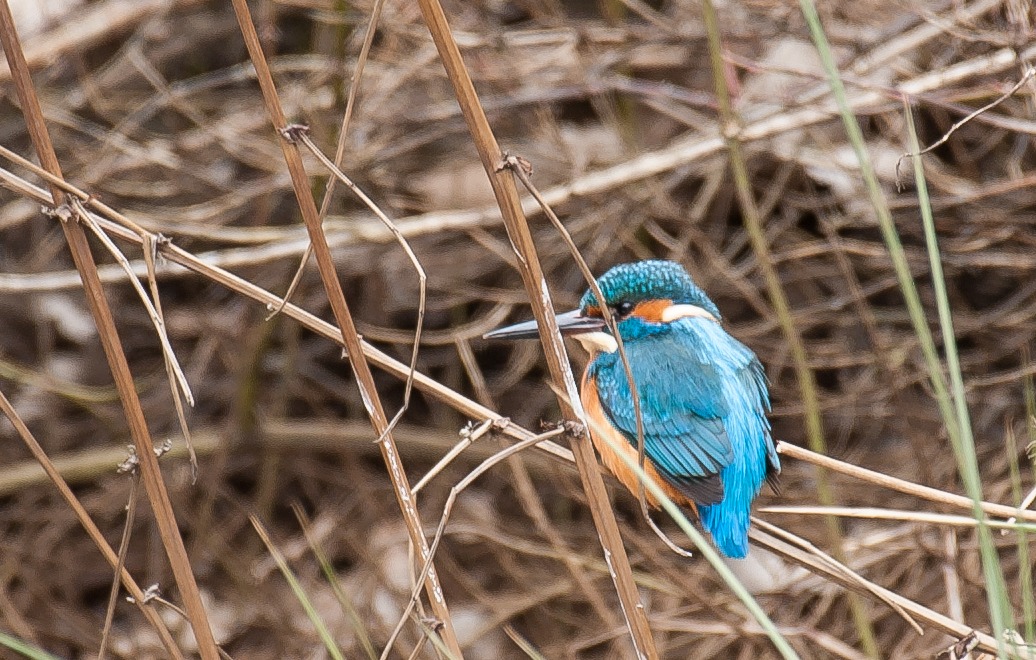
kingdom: Animalia
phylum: Chordata
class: Aves
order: Coraciiformes
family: Alcedinidae
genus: Alcedo
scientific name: Alcedo atthis
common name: Isfugl
